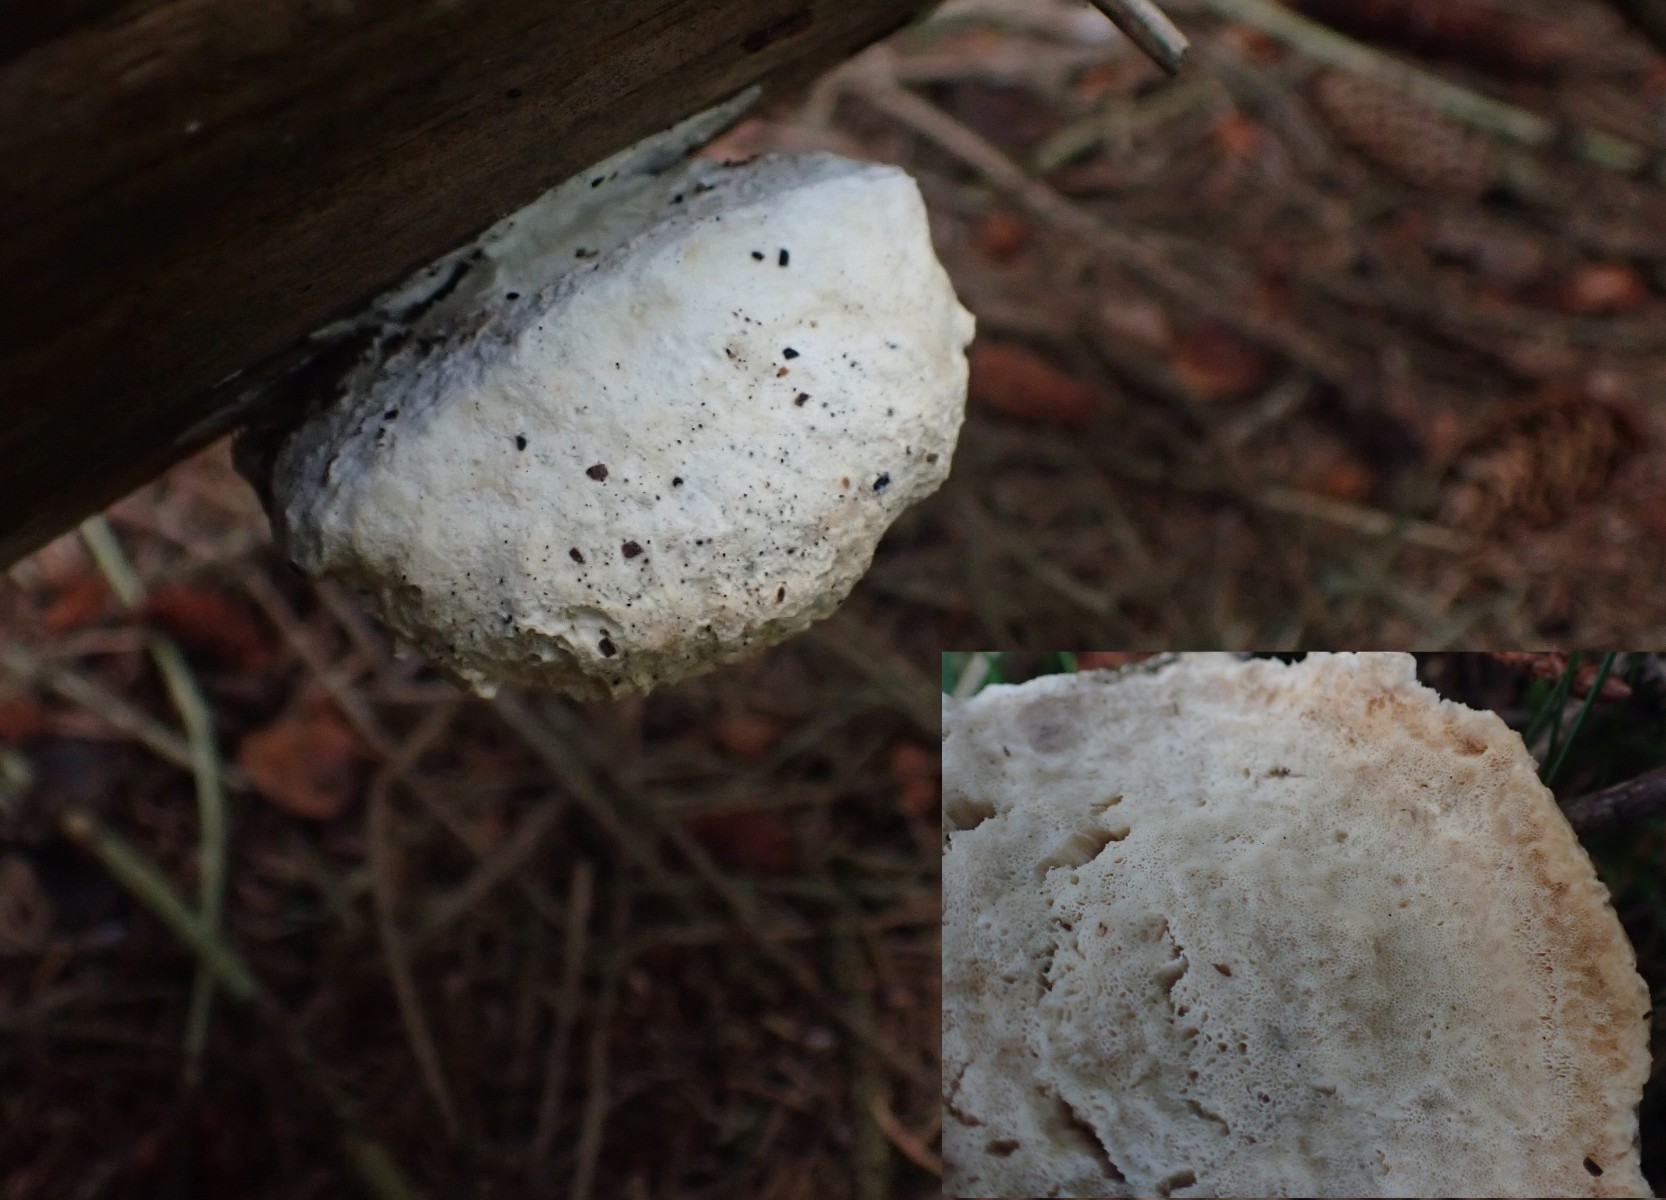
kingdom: Fungi
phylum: Basidiomycota
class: Agaricomycetes
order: Polyporales
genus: Amaropostia
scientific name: Amaropostia stiptica
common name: bitter kødporesvamp
